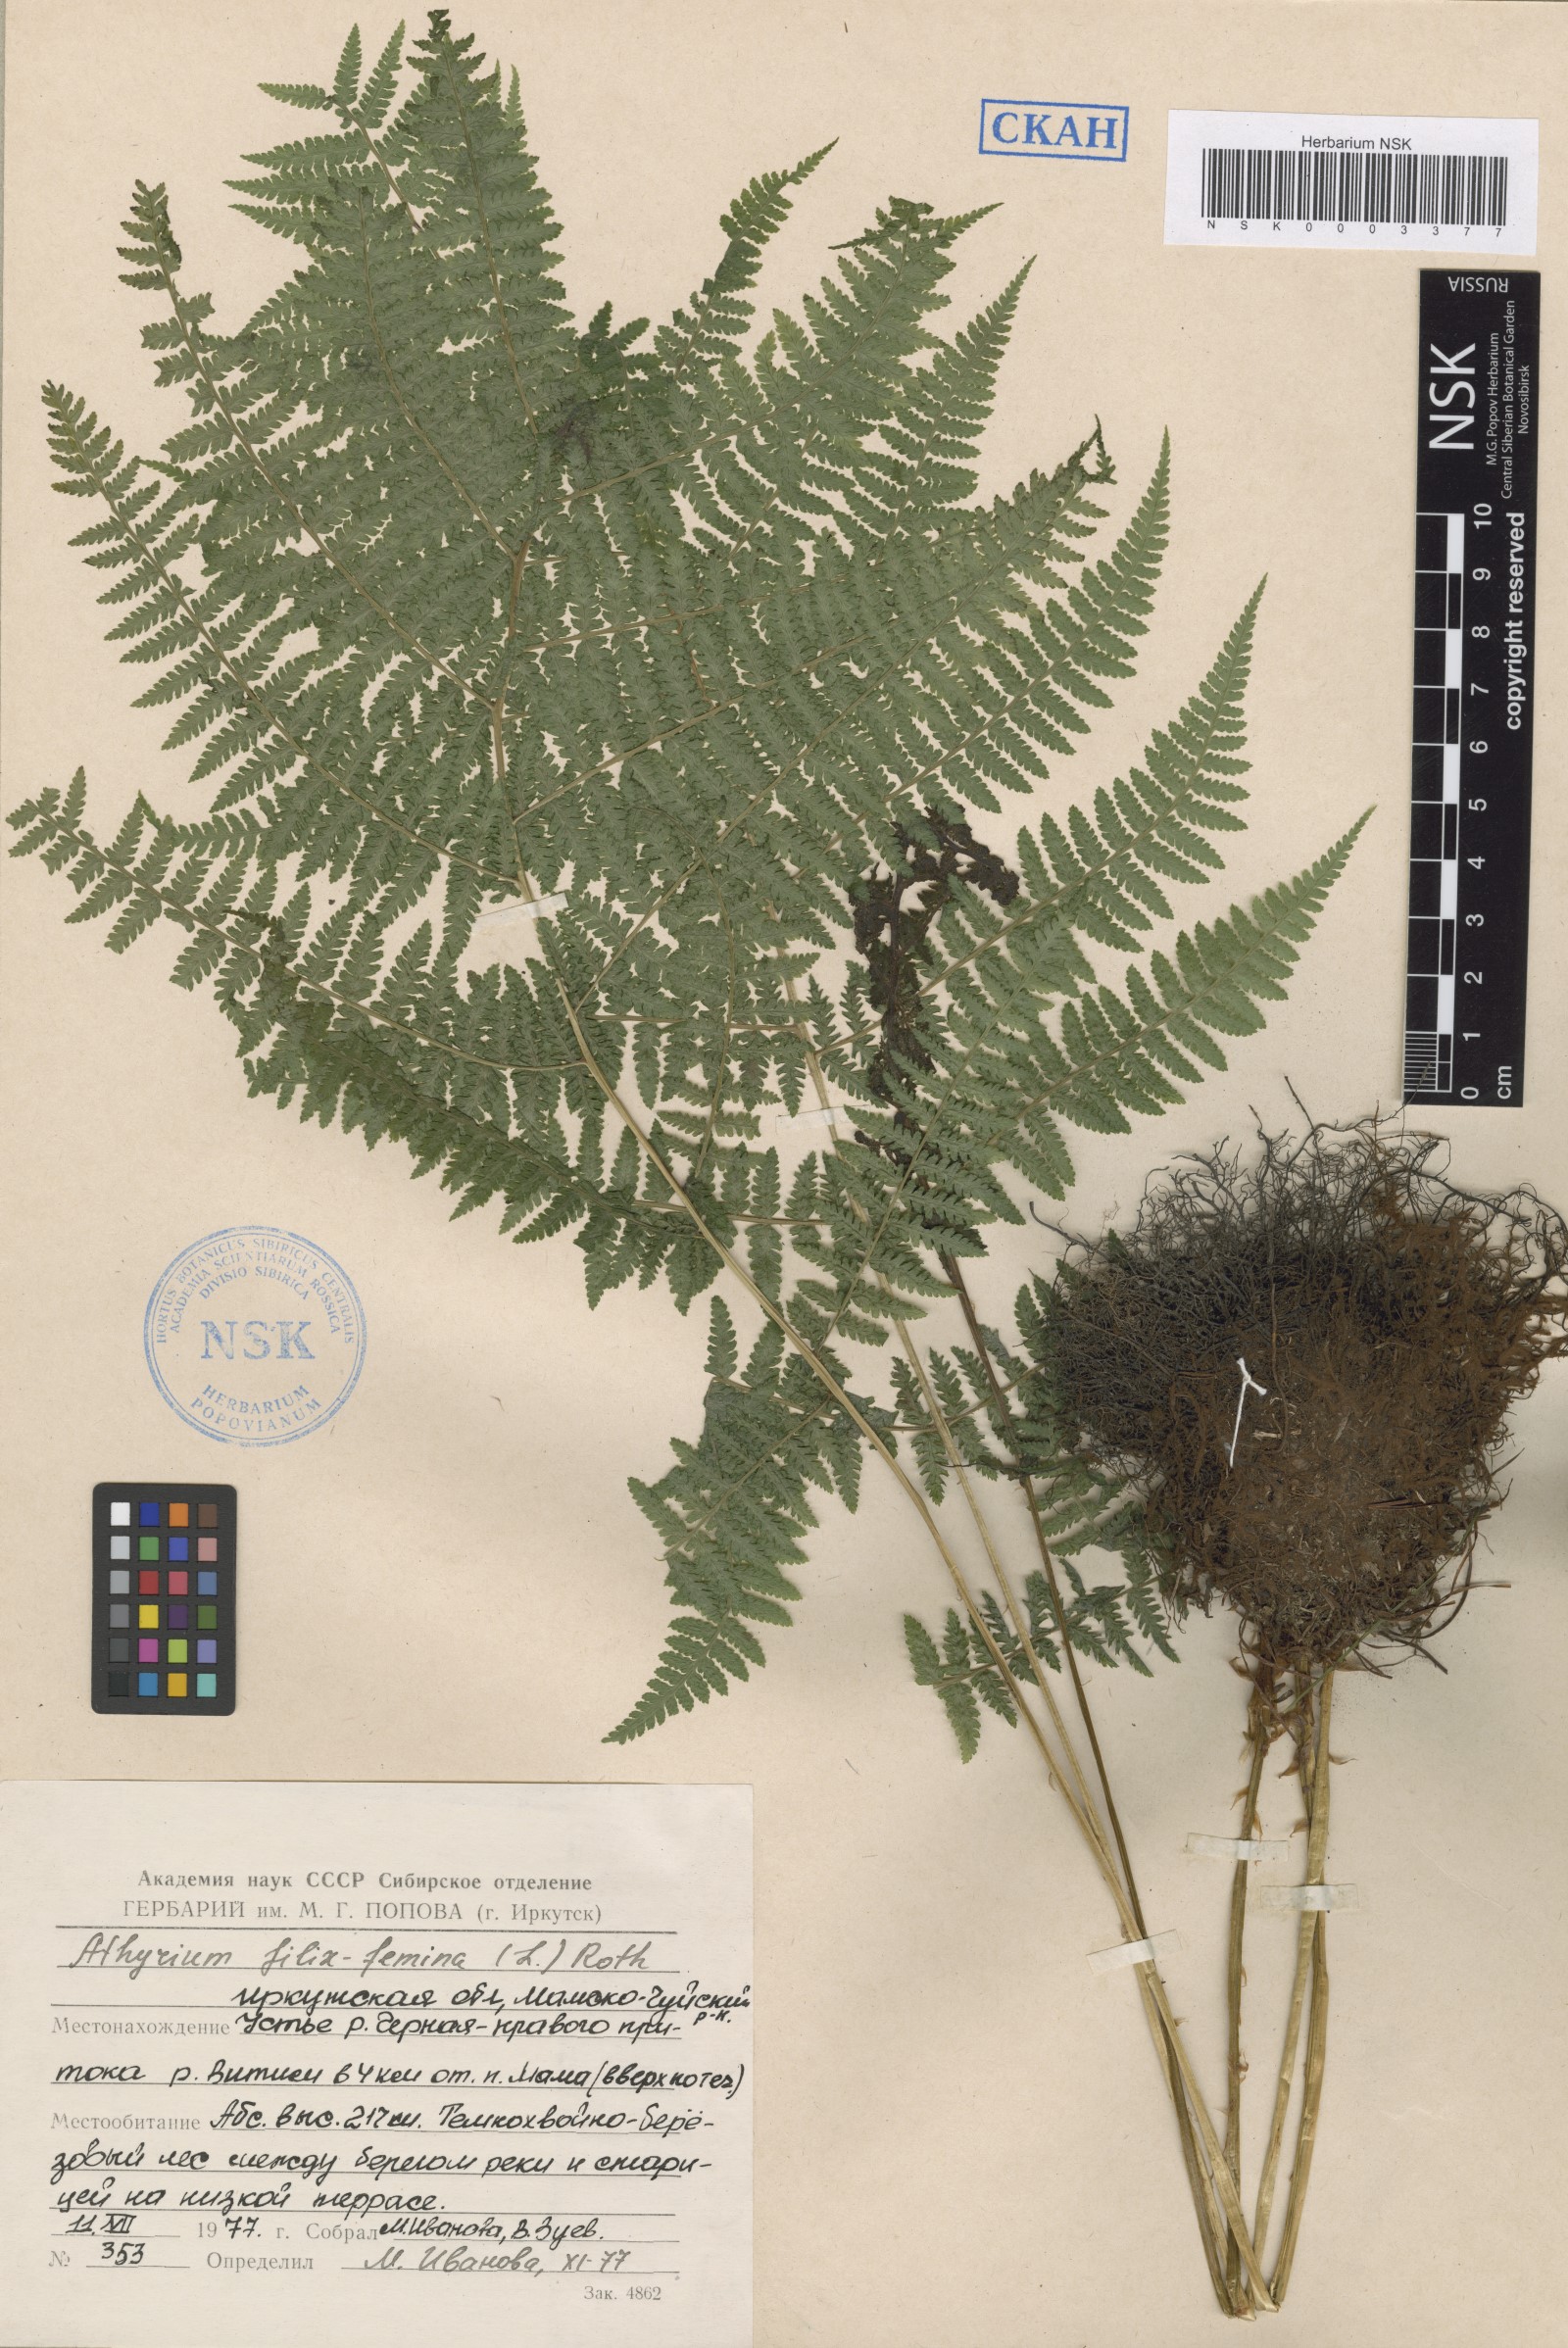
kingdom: Plantae
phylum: Tracheophyta
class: Polypodiopsida
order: Polypodiales
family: Athyriaceae
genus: Athyrium
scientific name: Athyrium filix-femina
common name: Lady fern
